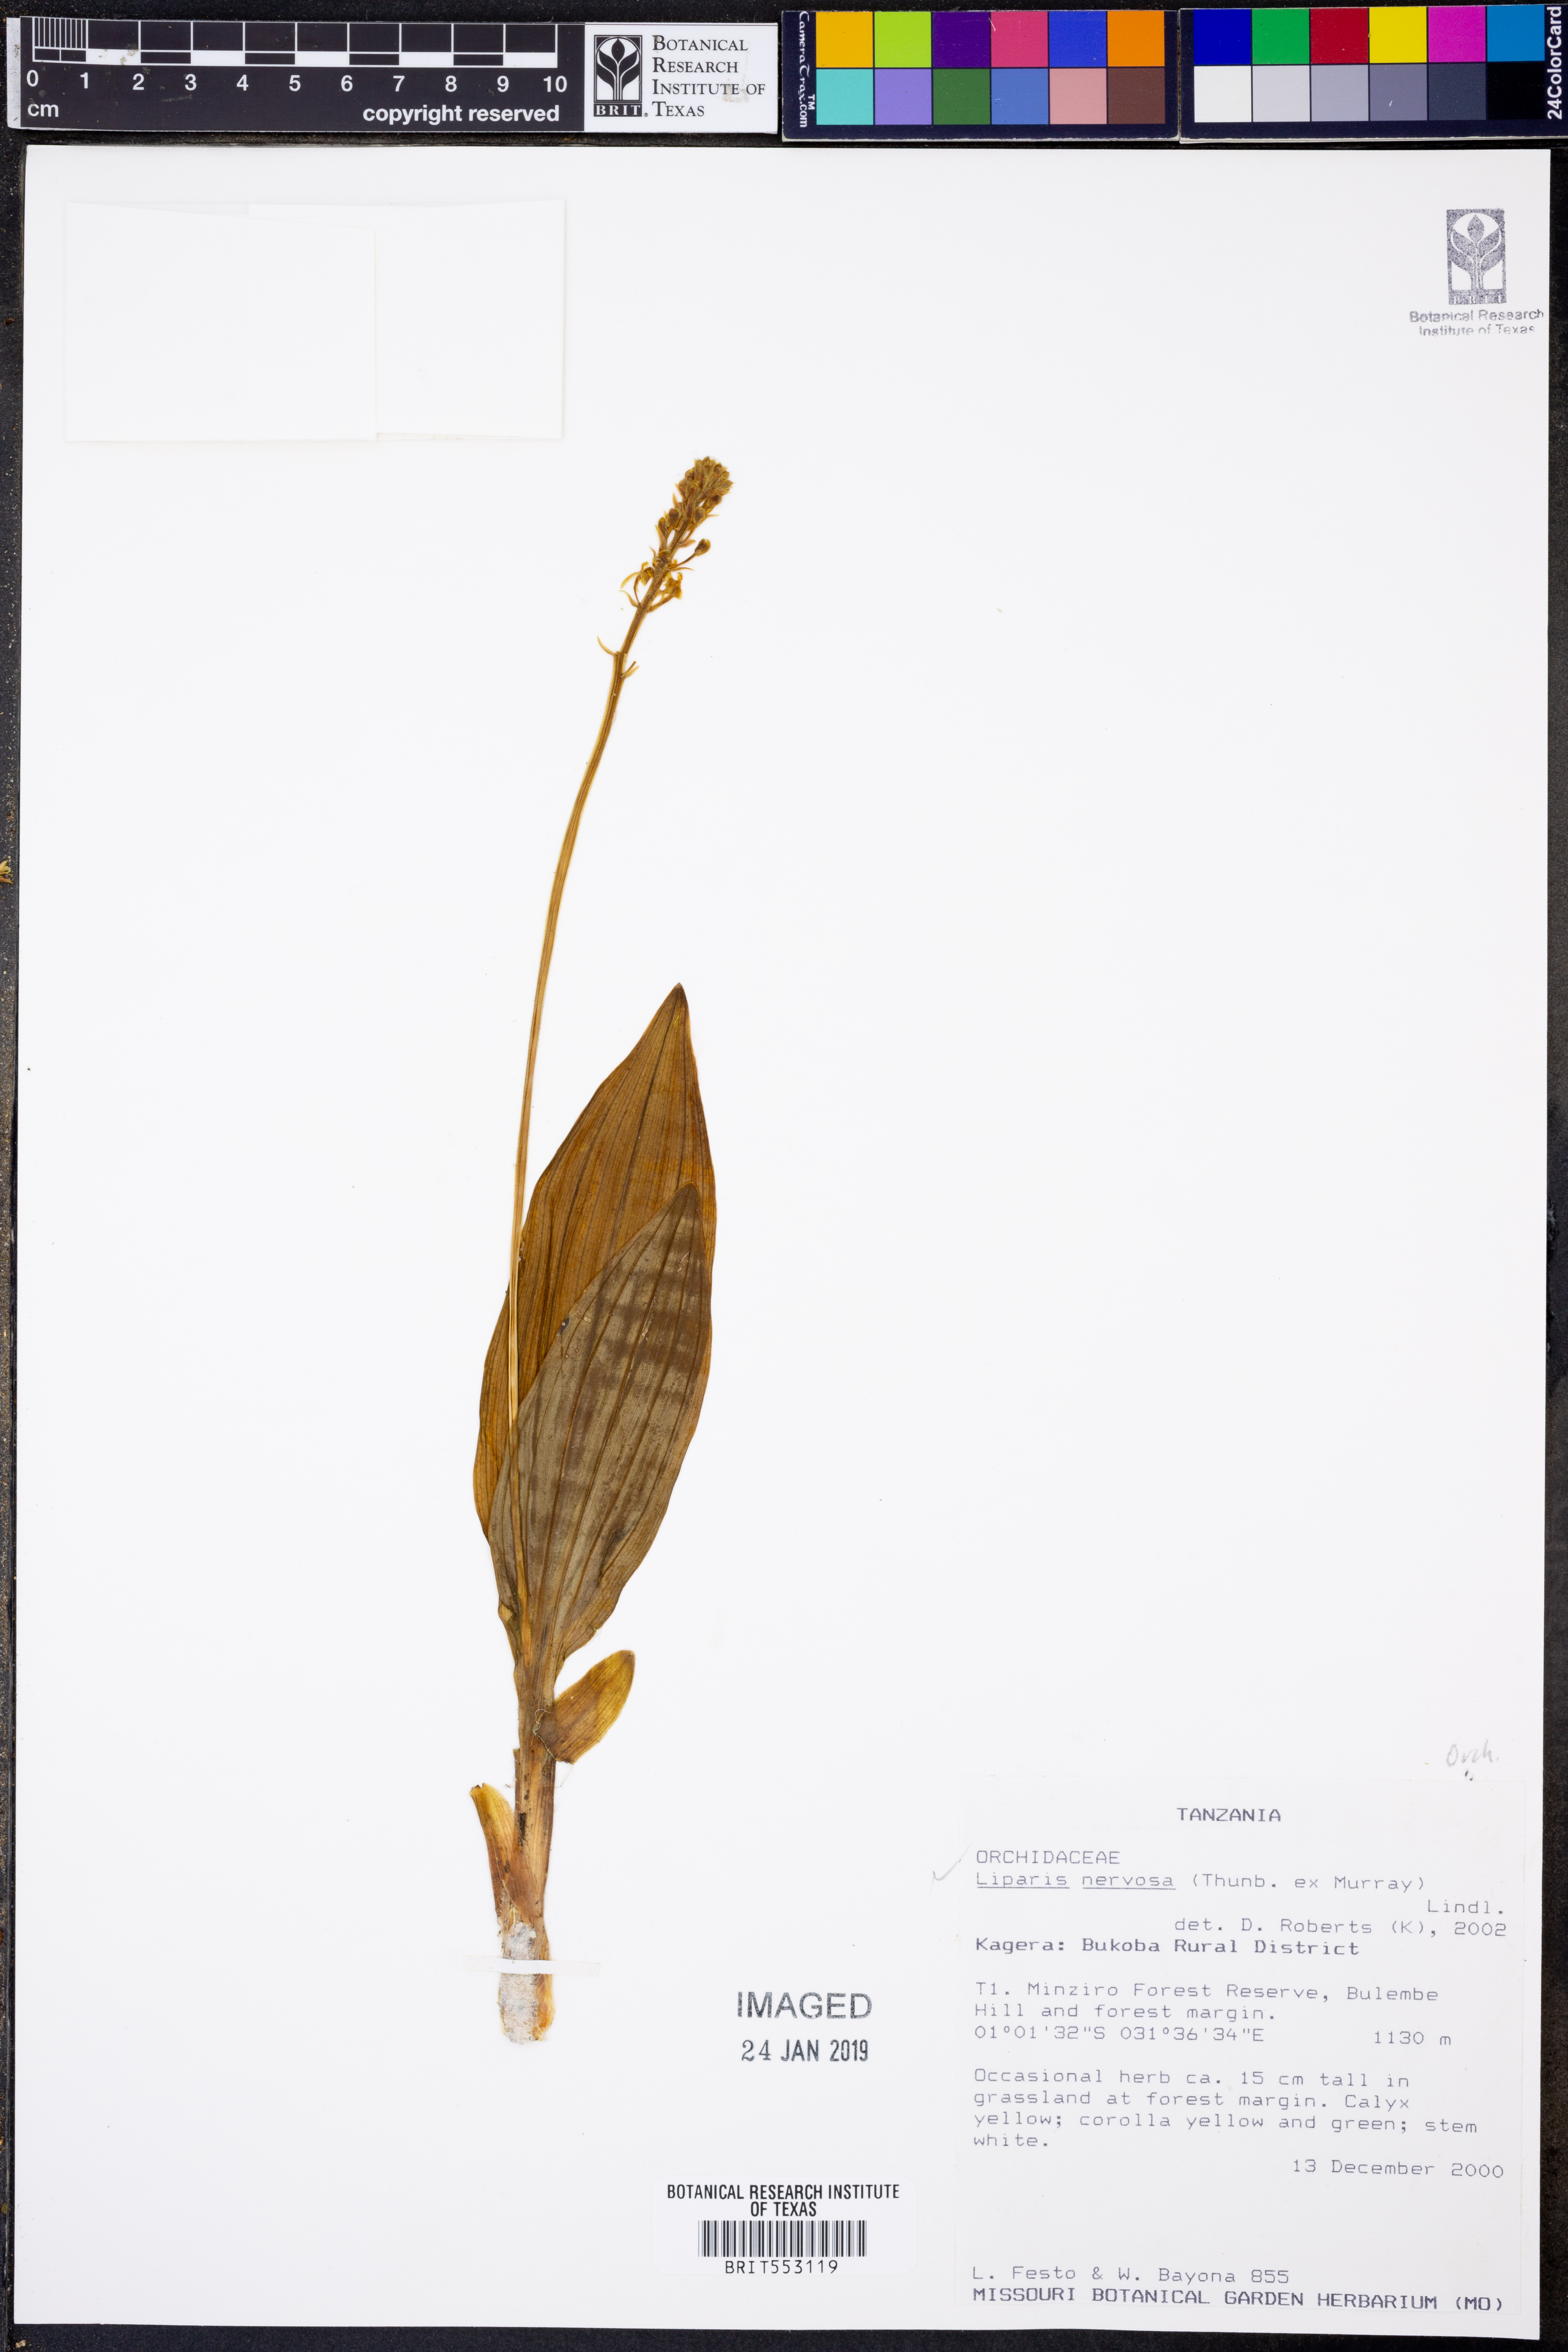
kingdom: Plantae
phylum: Tracheophyta
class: Liliopsida
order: Asparagales
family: Orchidaceae
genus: Liparis
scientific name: Liparis nervosa
